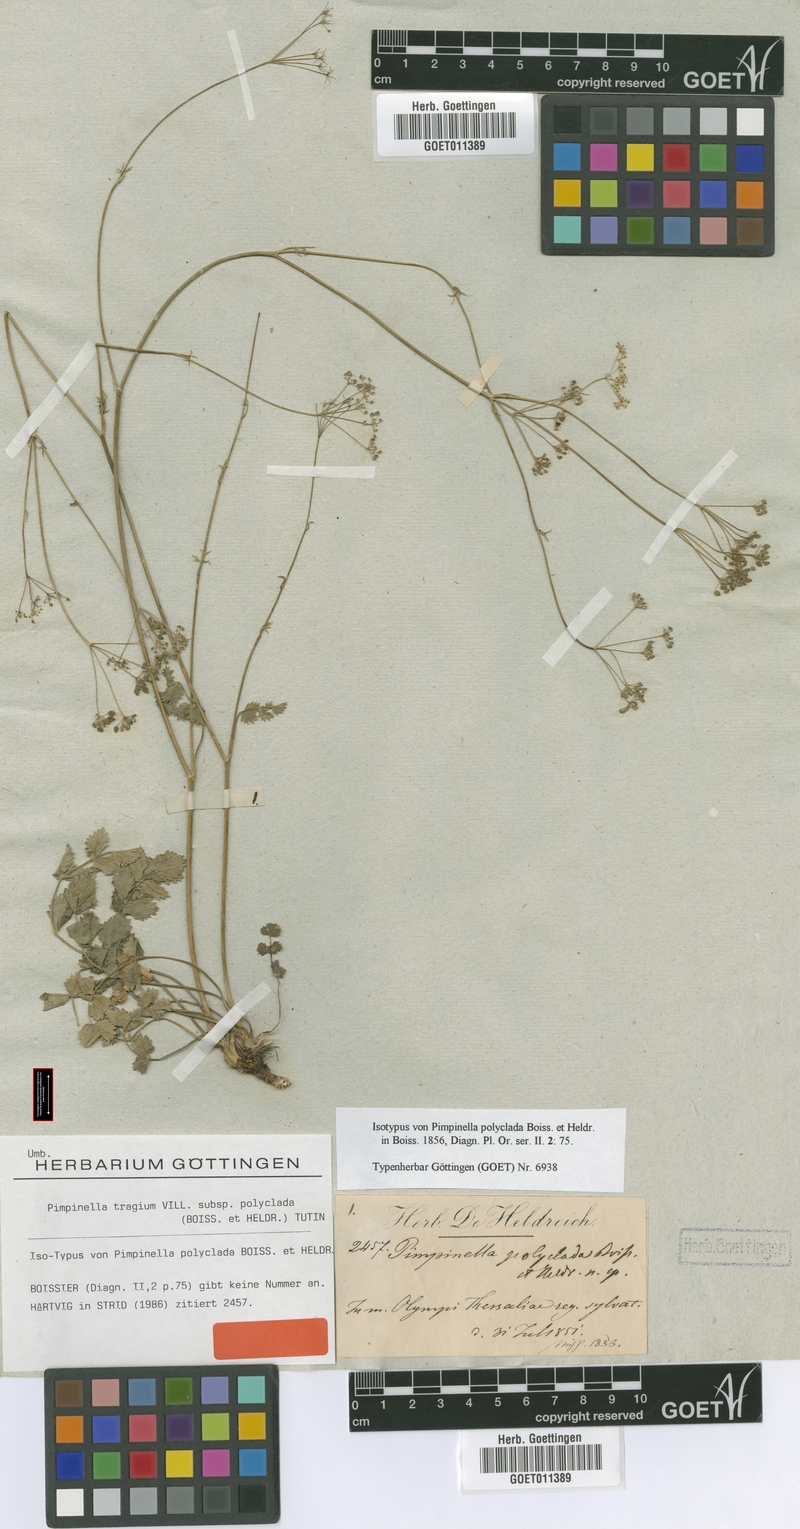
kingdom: Plantae
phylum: Tracheophyta
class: Magnoliopsida
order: Apiales
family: Apiaceae
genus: Pimpinella
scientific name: Pimpinella tragium
